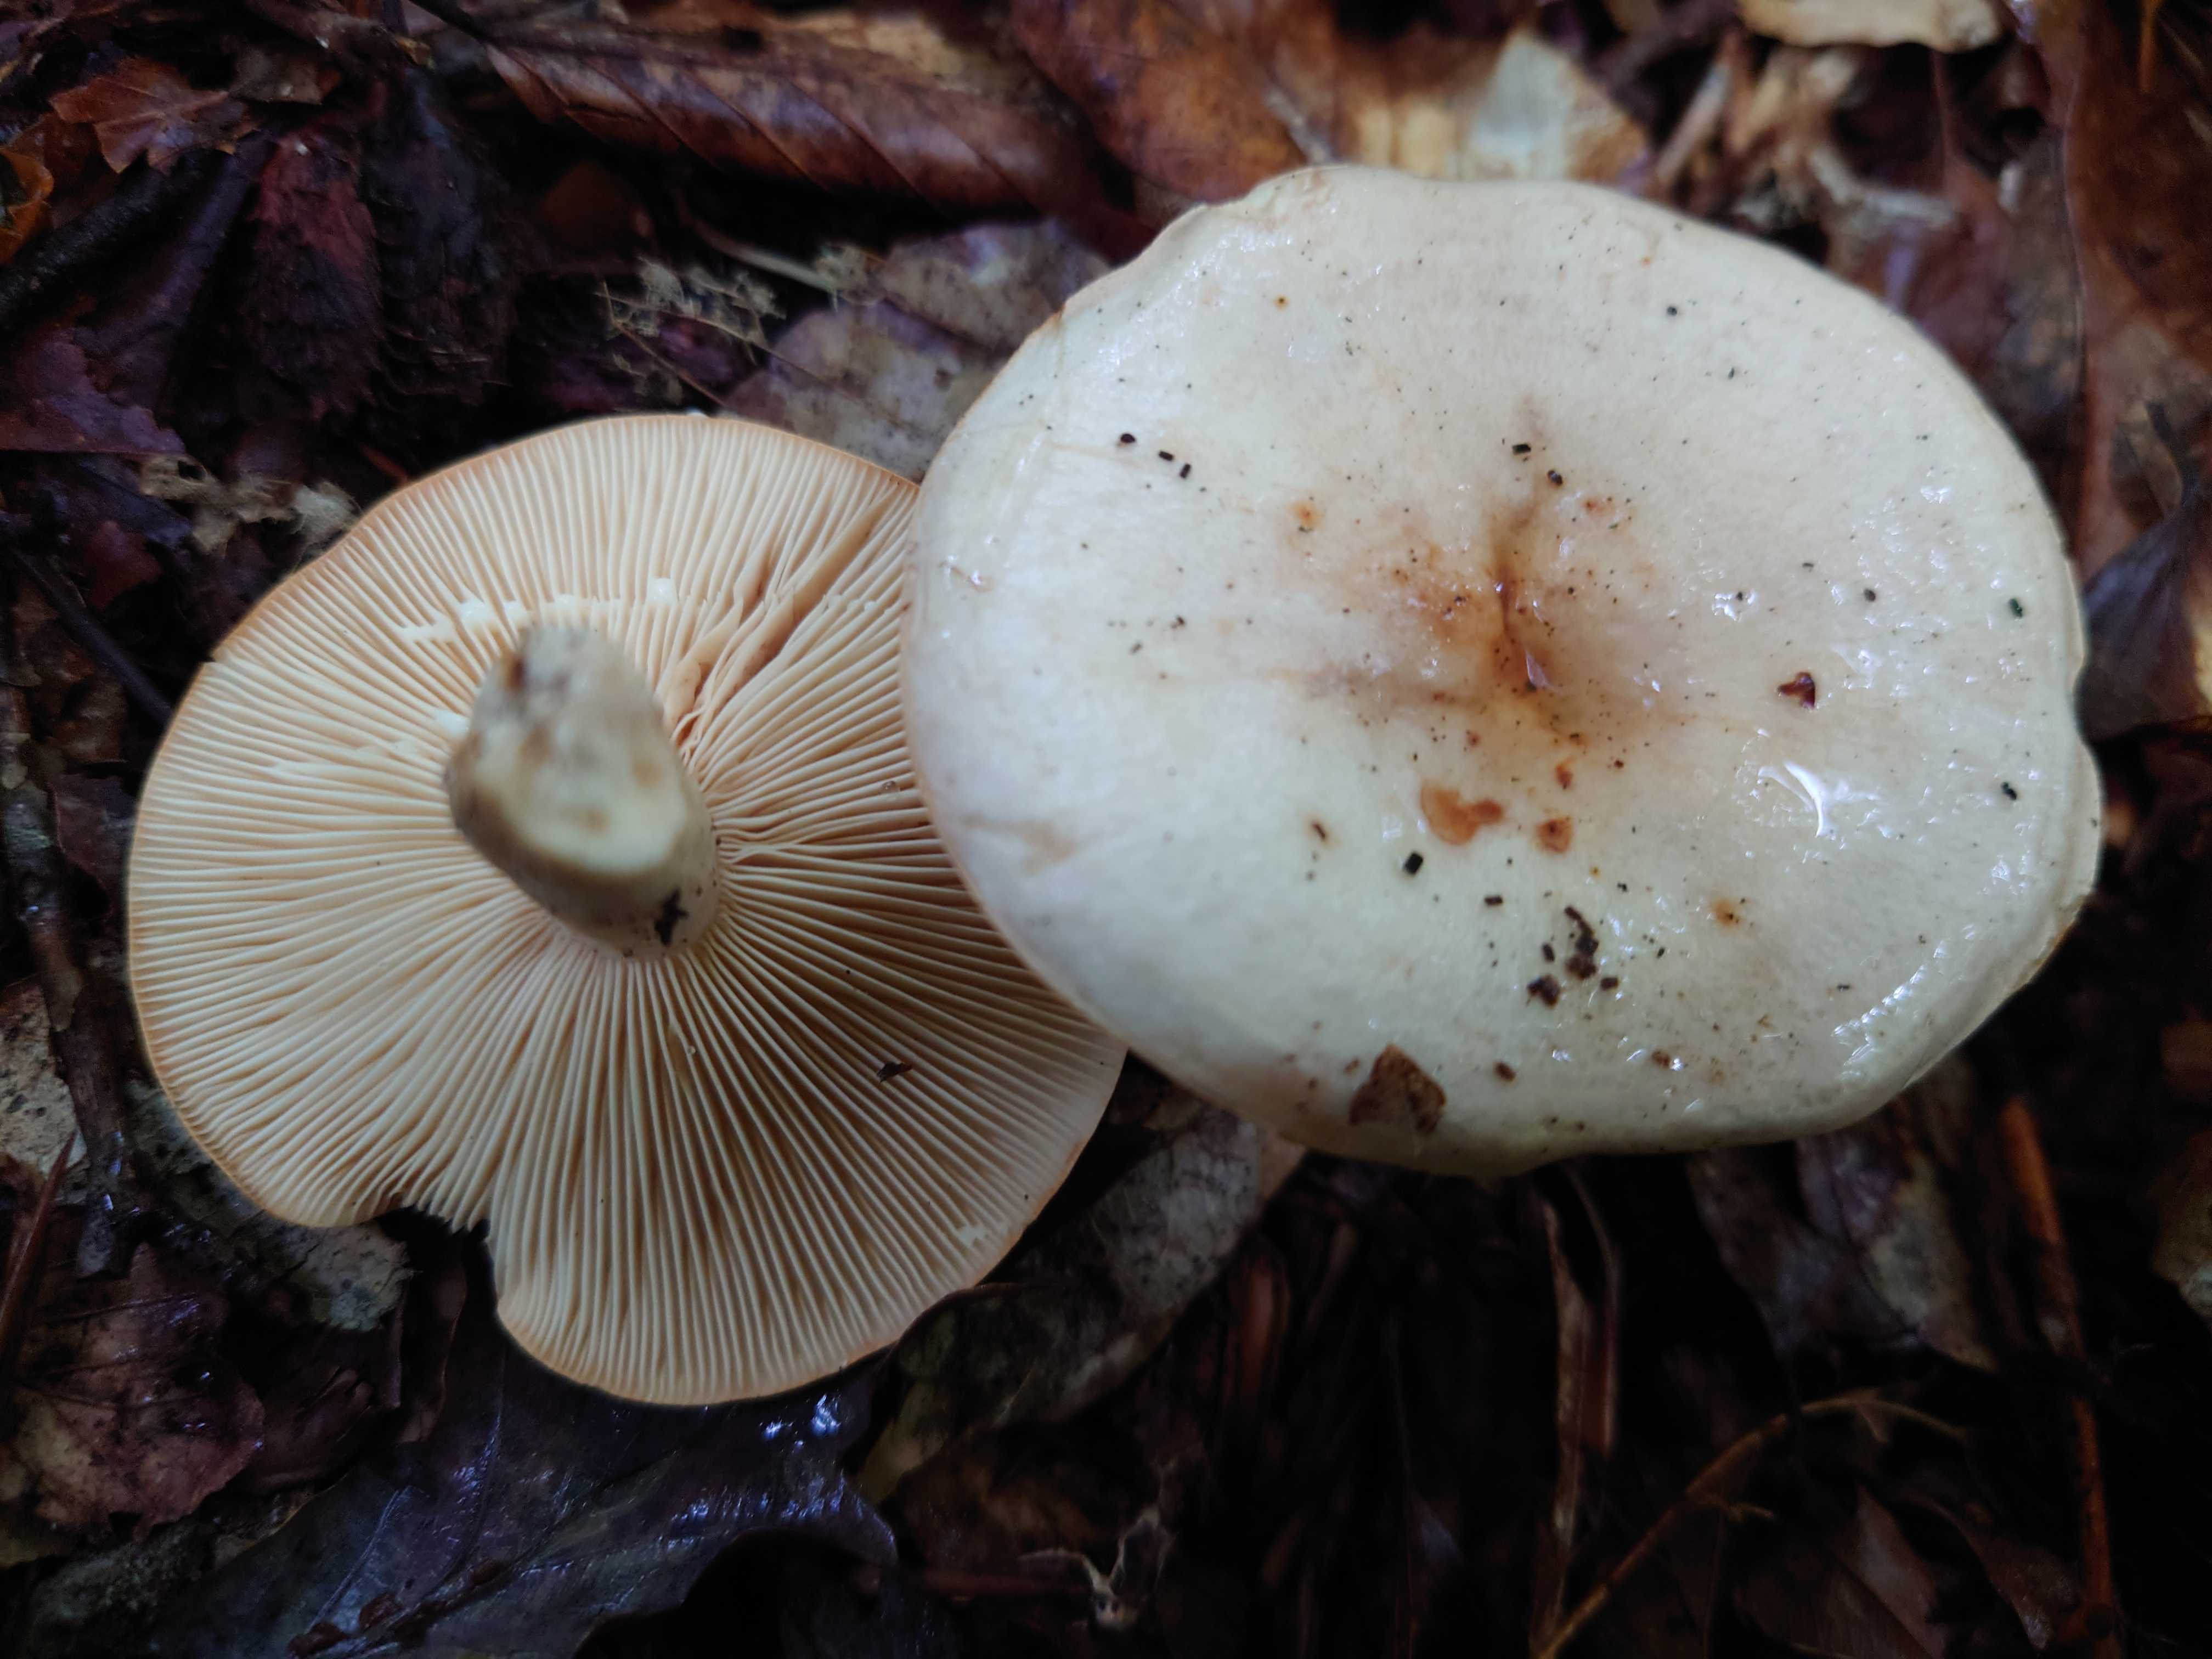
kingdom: Fungi
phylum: Basidiomycota
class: Agaricomycetes
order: Russulales
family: Russulaceae
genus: Lactarius
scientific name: Lactarius pallidus
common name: bleg mælkehat
